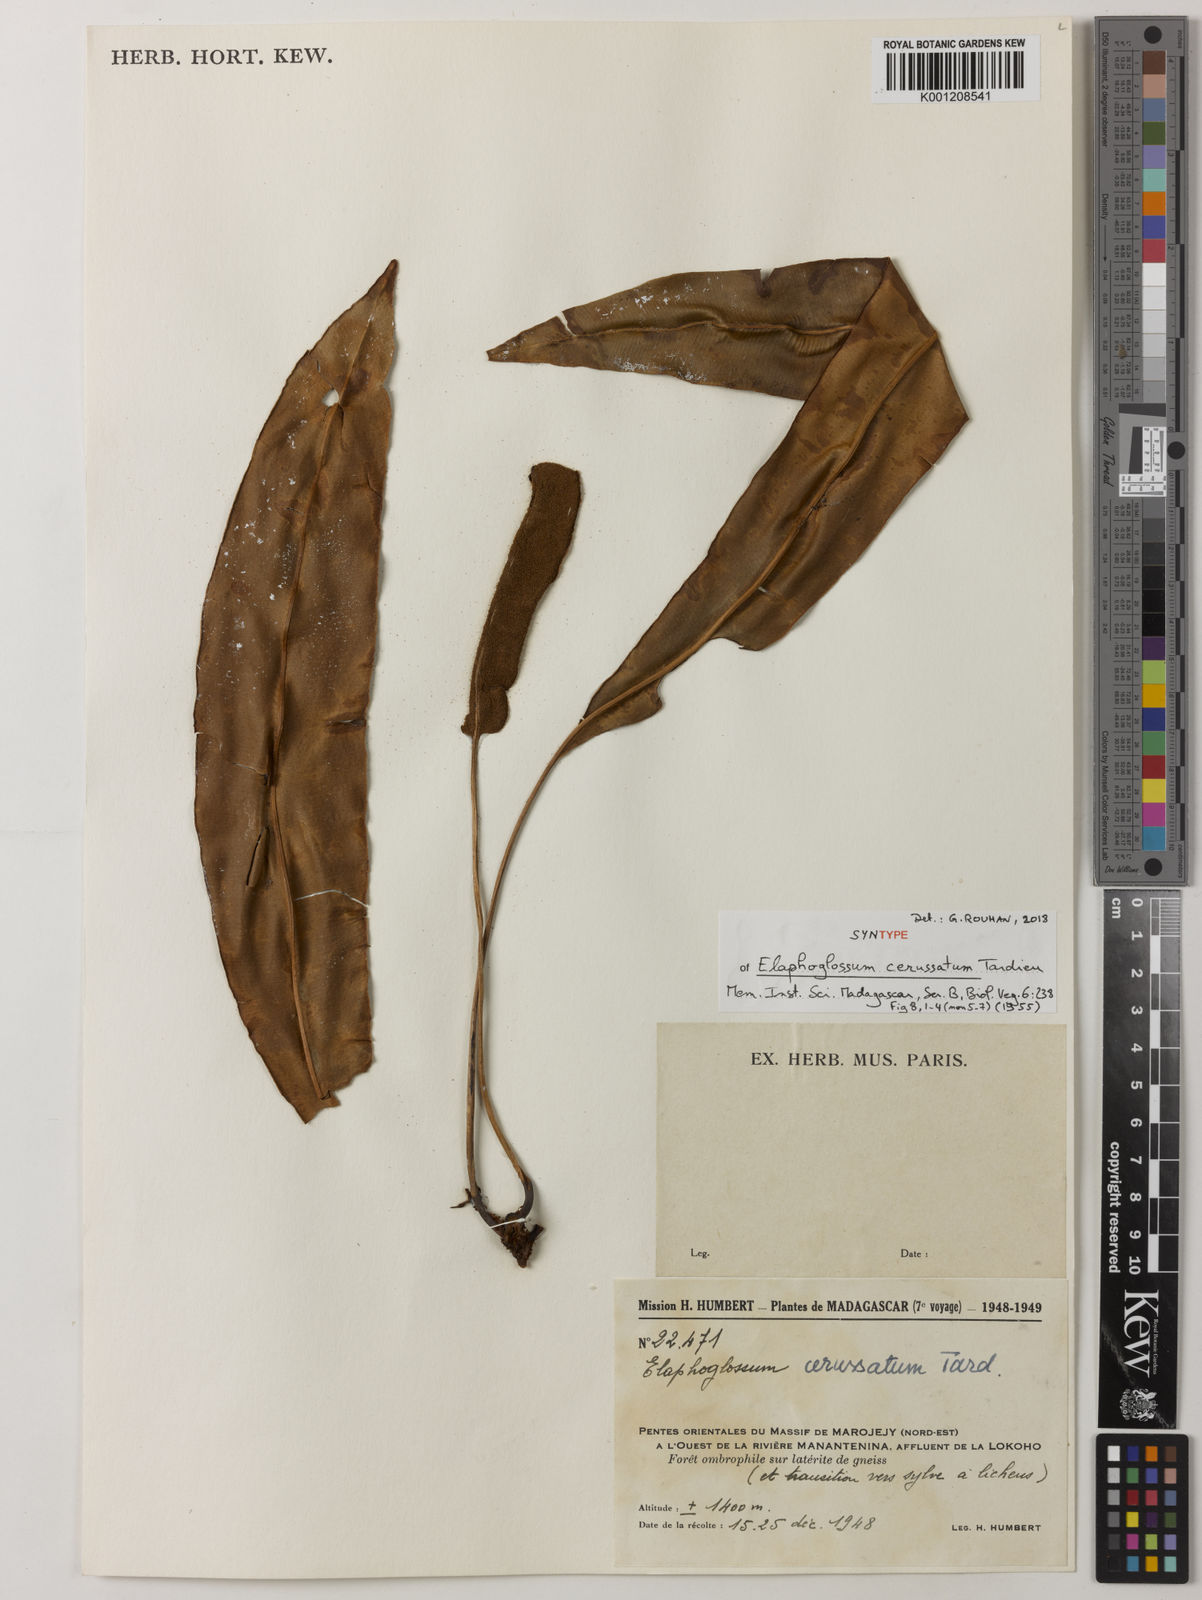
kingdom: Plantae
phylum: Tracheophyta
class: Polypodiopsida
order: Polypodiales
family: Dryopteridaceae
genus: Elaphoglossum
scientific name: Elaphoglossum cerussatum
